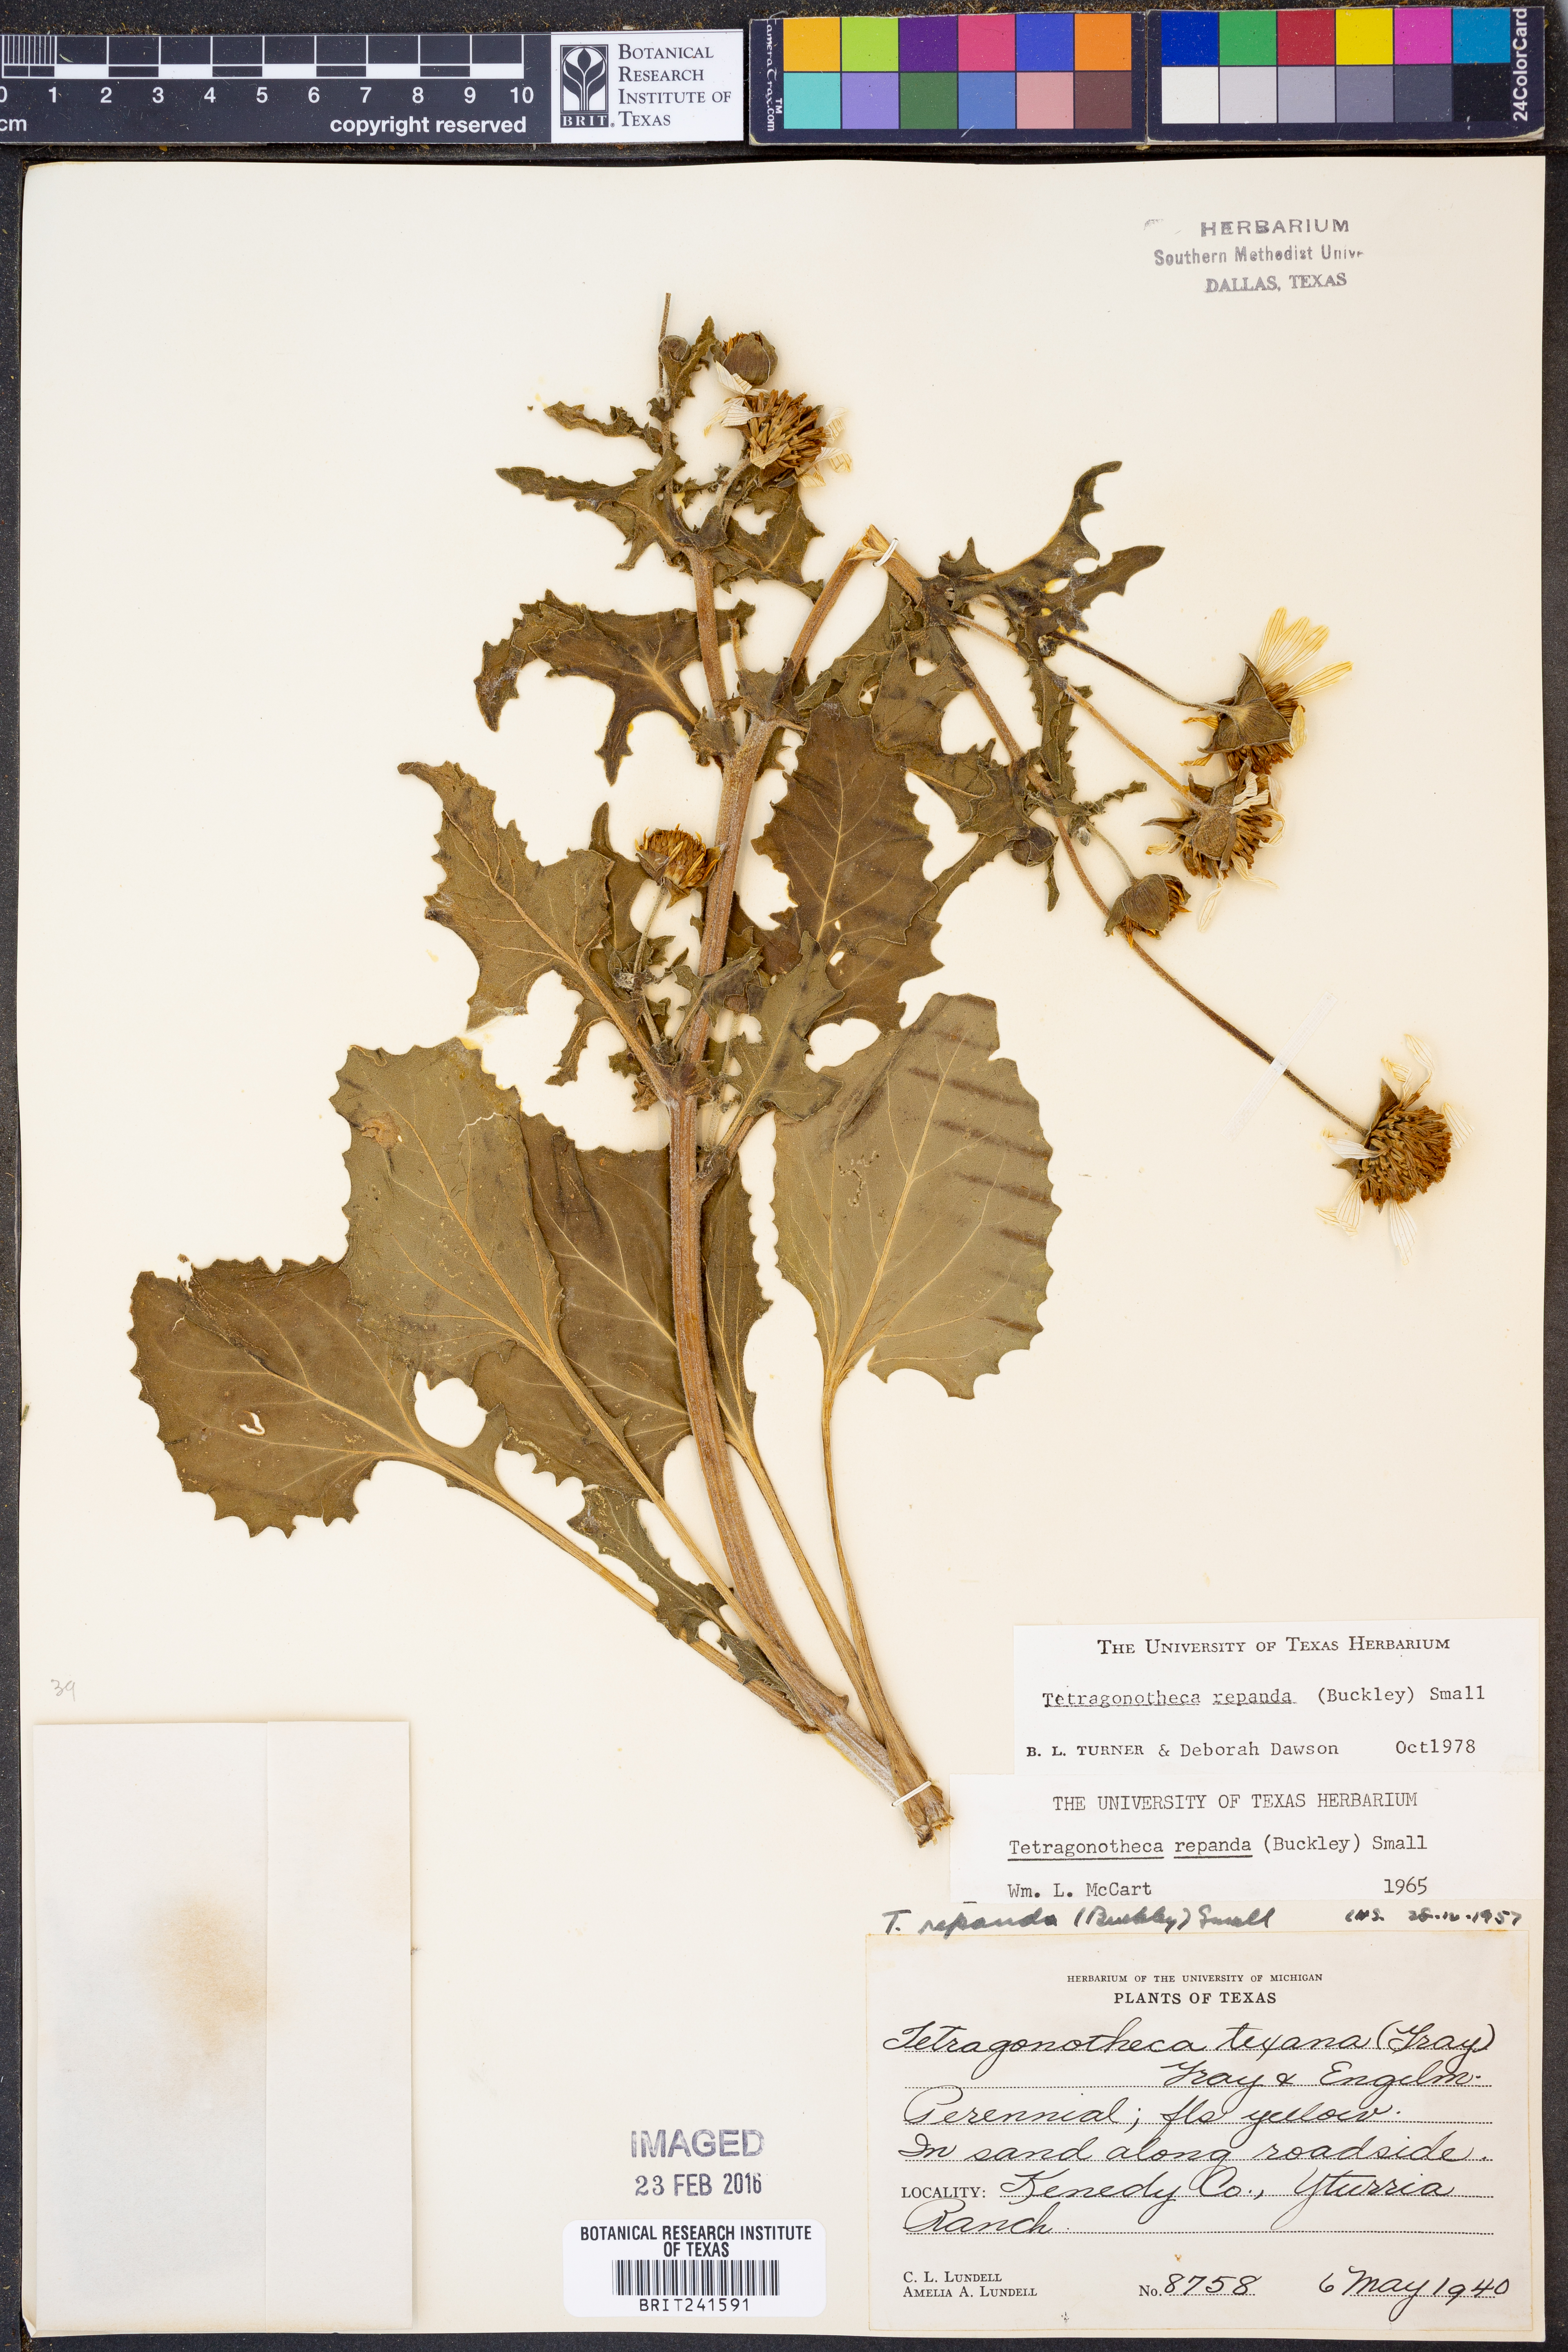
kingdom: Plantae
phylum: Tracheophyta
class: Magnoliopsida
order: Asterales
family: Asteraceae
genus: Tetragonotheca
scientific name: Tetragonotheca repanda
